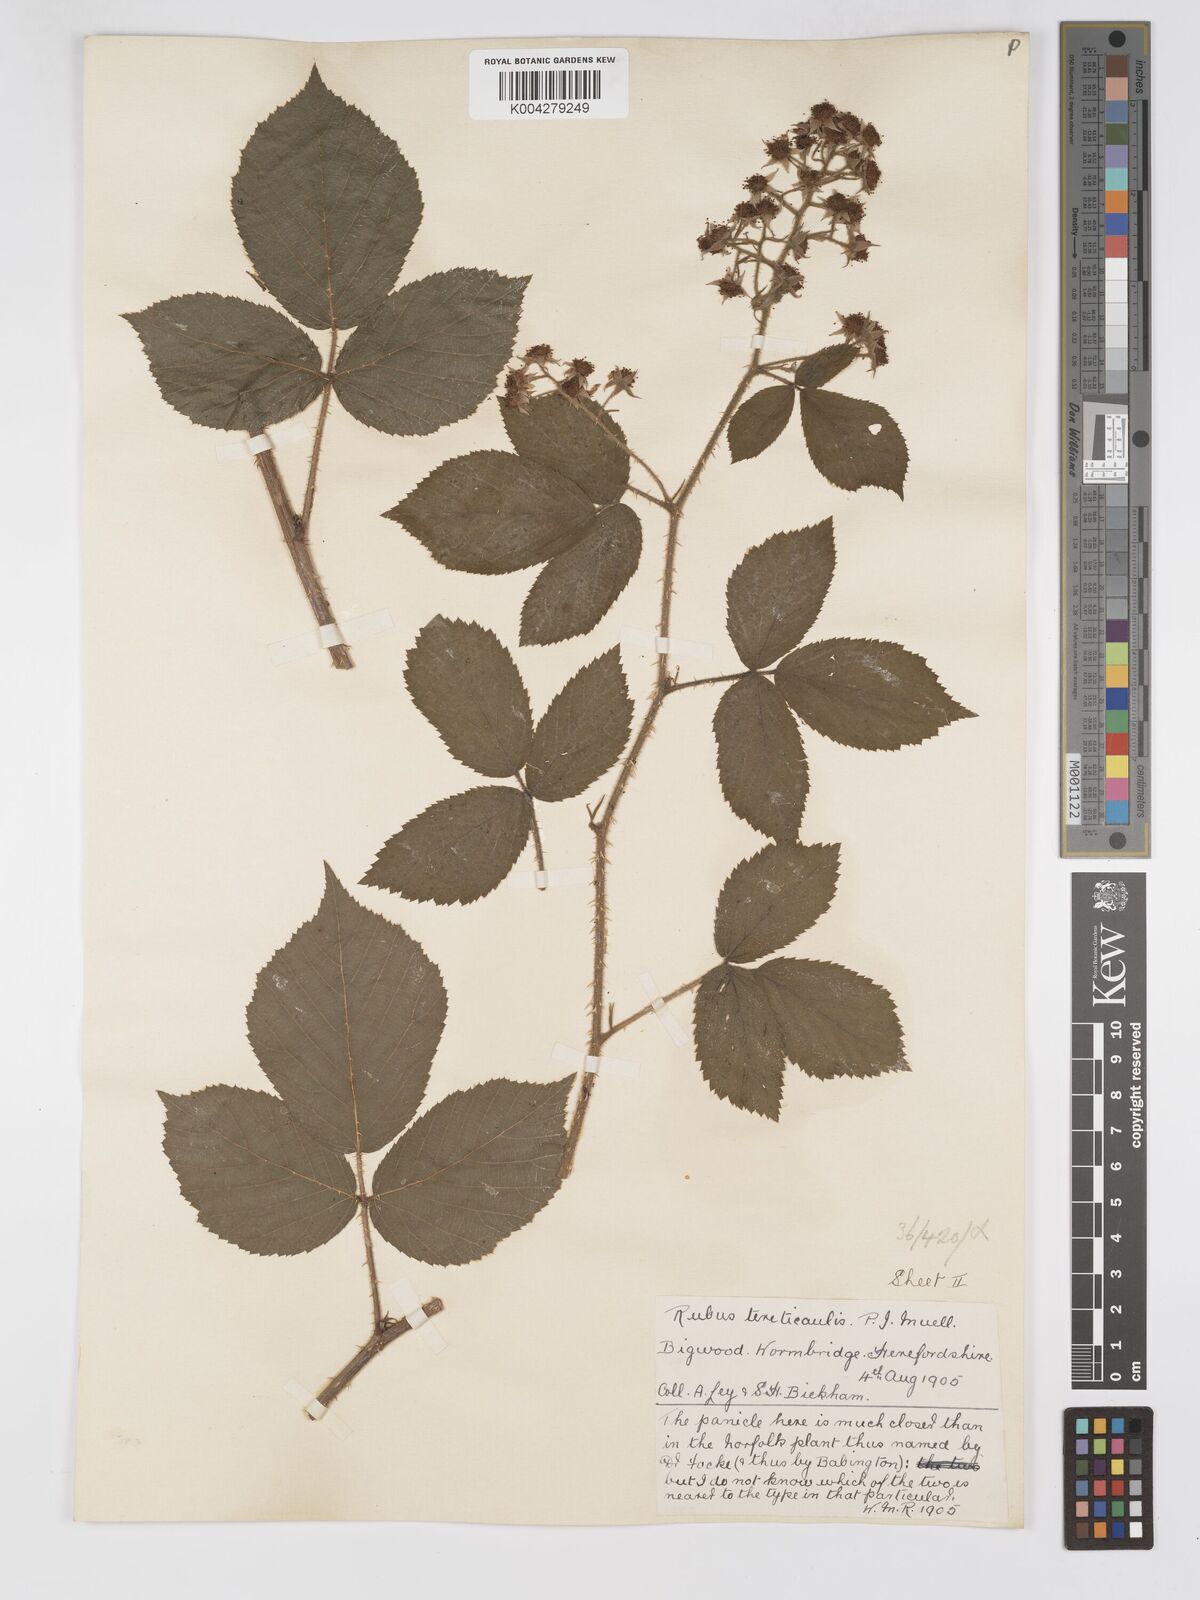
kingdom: Plantae
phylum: Tracheophyta
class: Magnoliopsida
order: Rosales
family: Rosaceae
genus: Rubus
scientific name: Rubus tereticaulis
